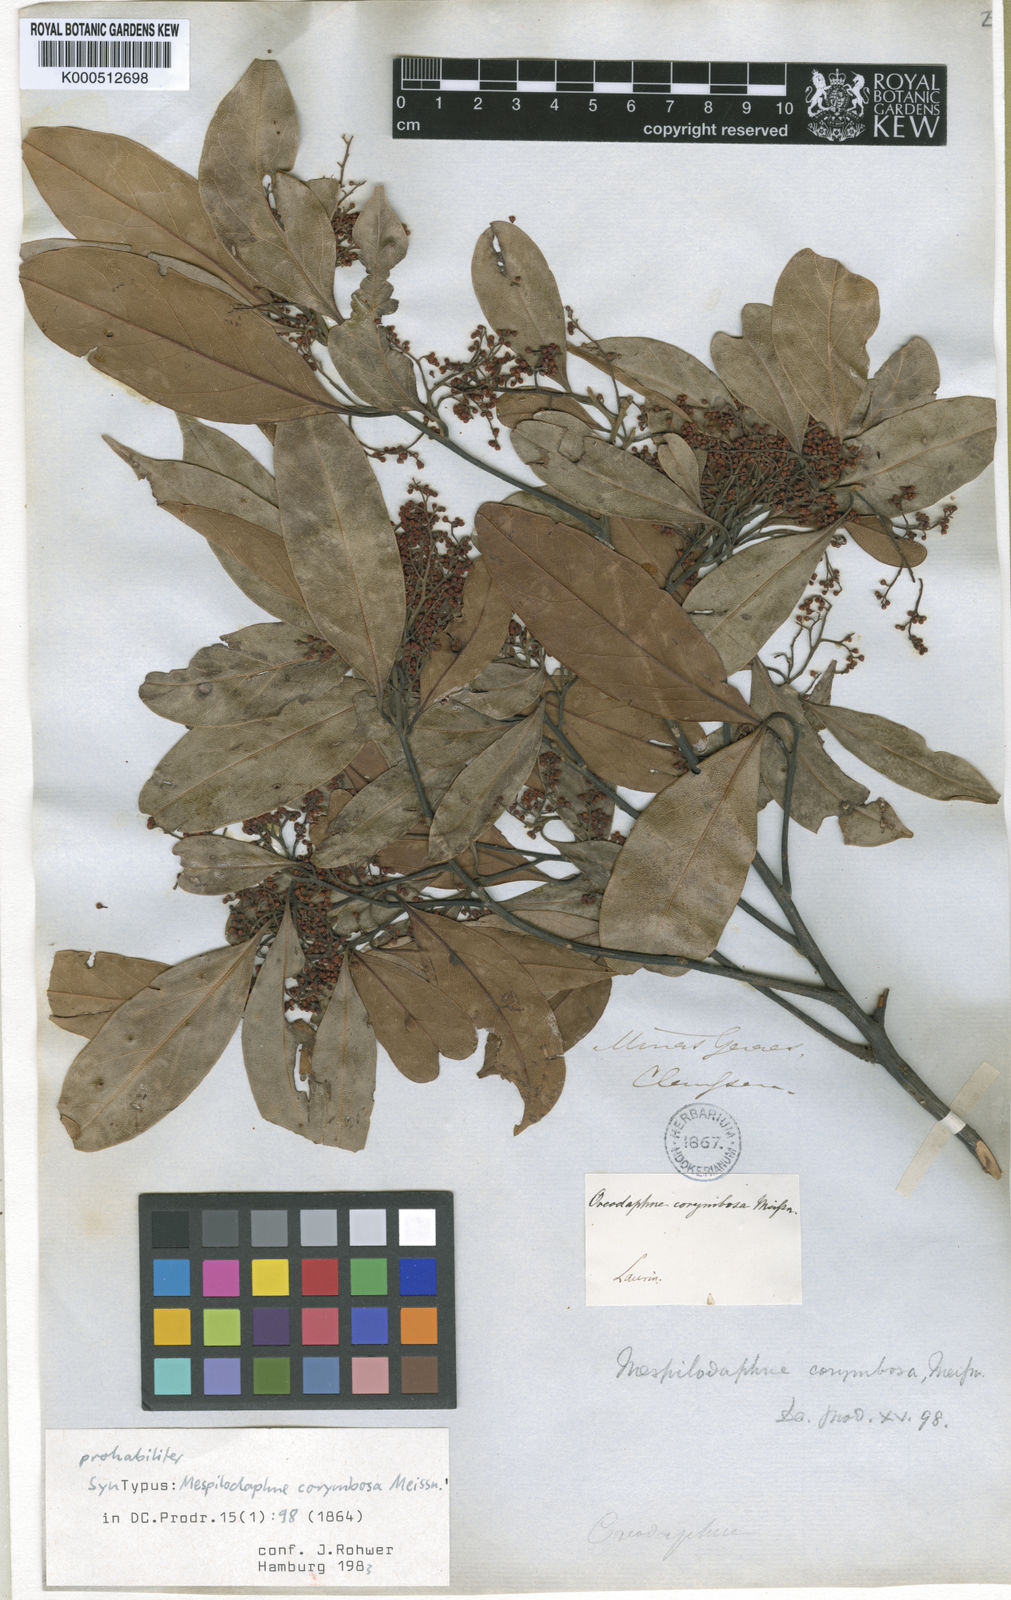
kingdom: Plantae
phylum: Tracheophyta
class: Magnoliopsida
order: Laurales
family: Lauraceae
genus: Mespilodaphne
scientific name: Mespilodaphne corymbosa
